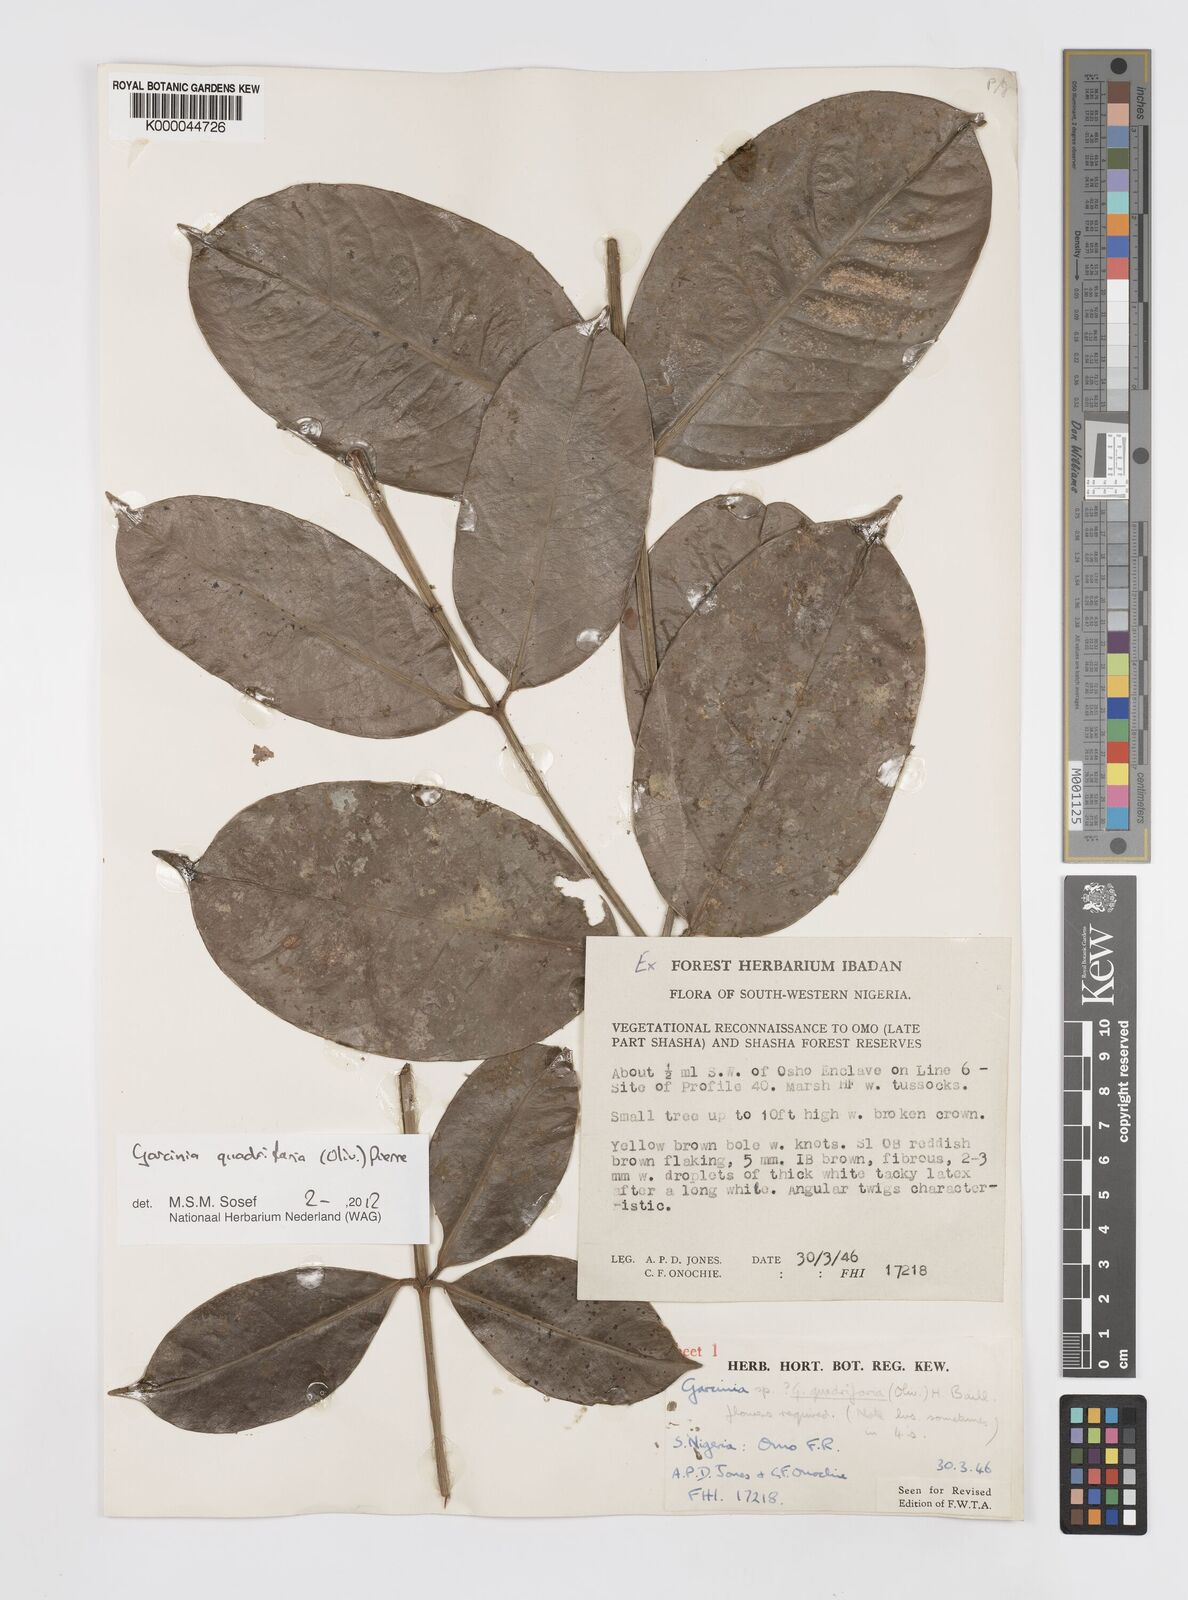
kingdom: Plantae
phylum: Tracheophyta
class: Magnoliopsida
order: Malpighiales
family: Clusiaceae
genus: Garcinia
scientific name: Garcinia gnetoides
